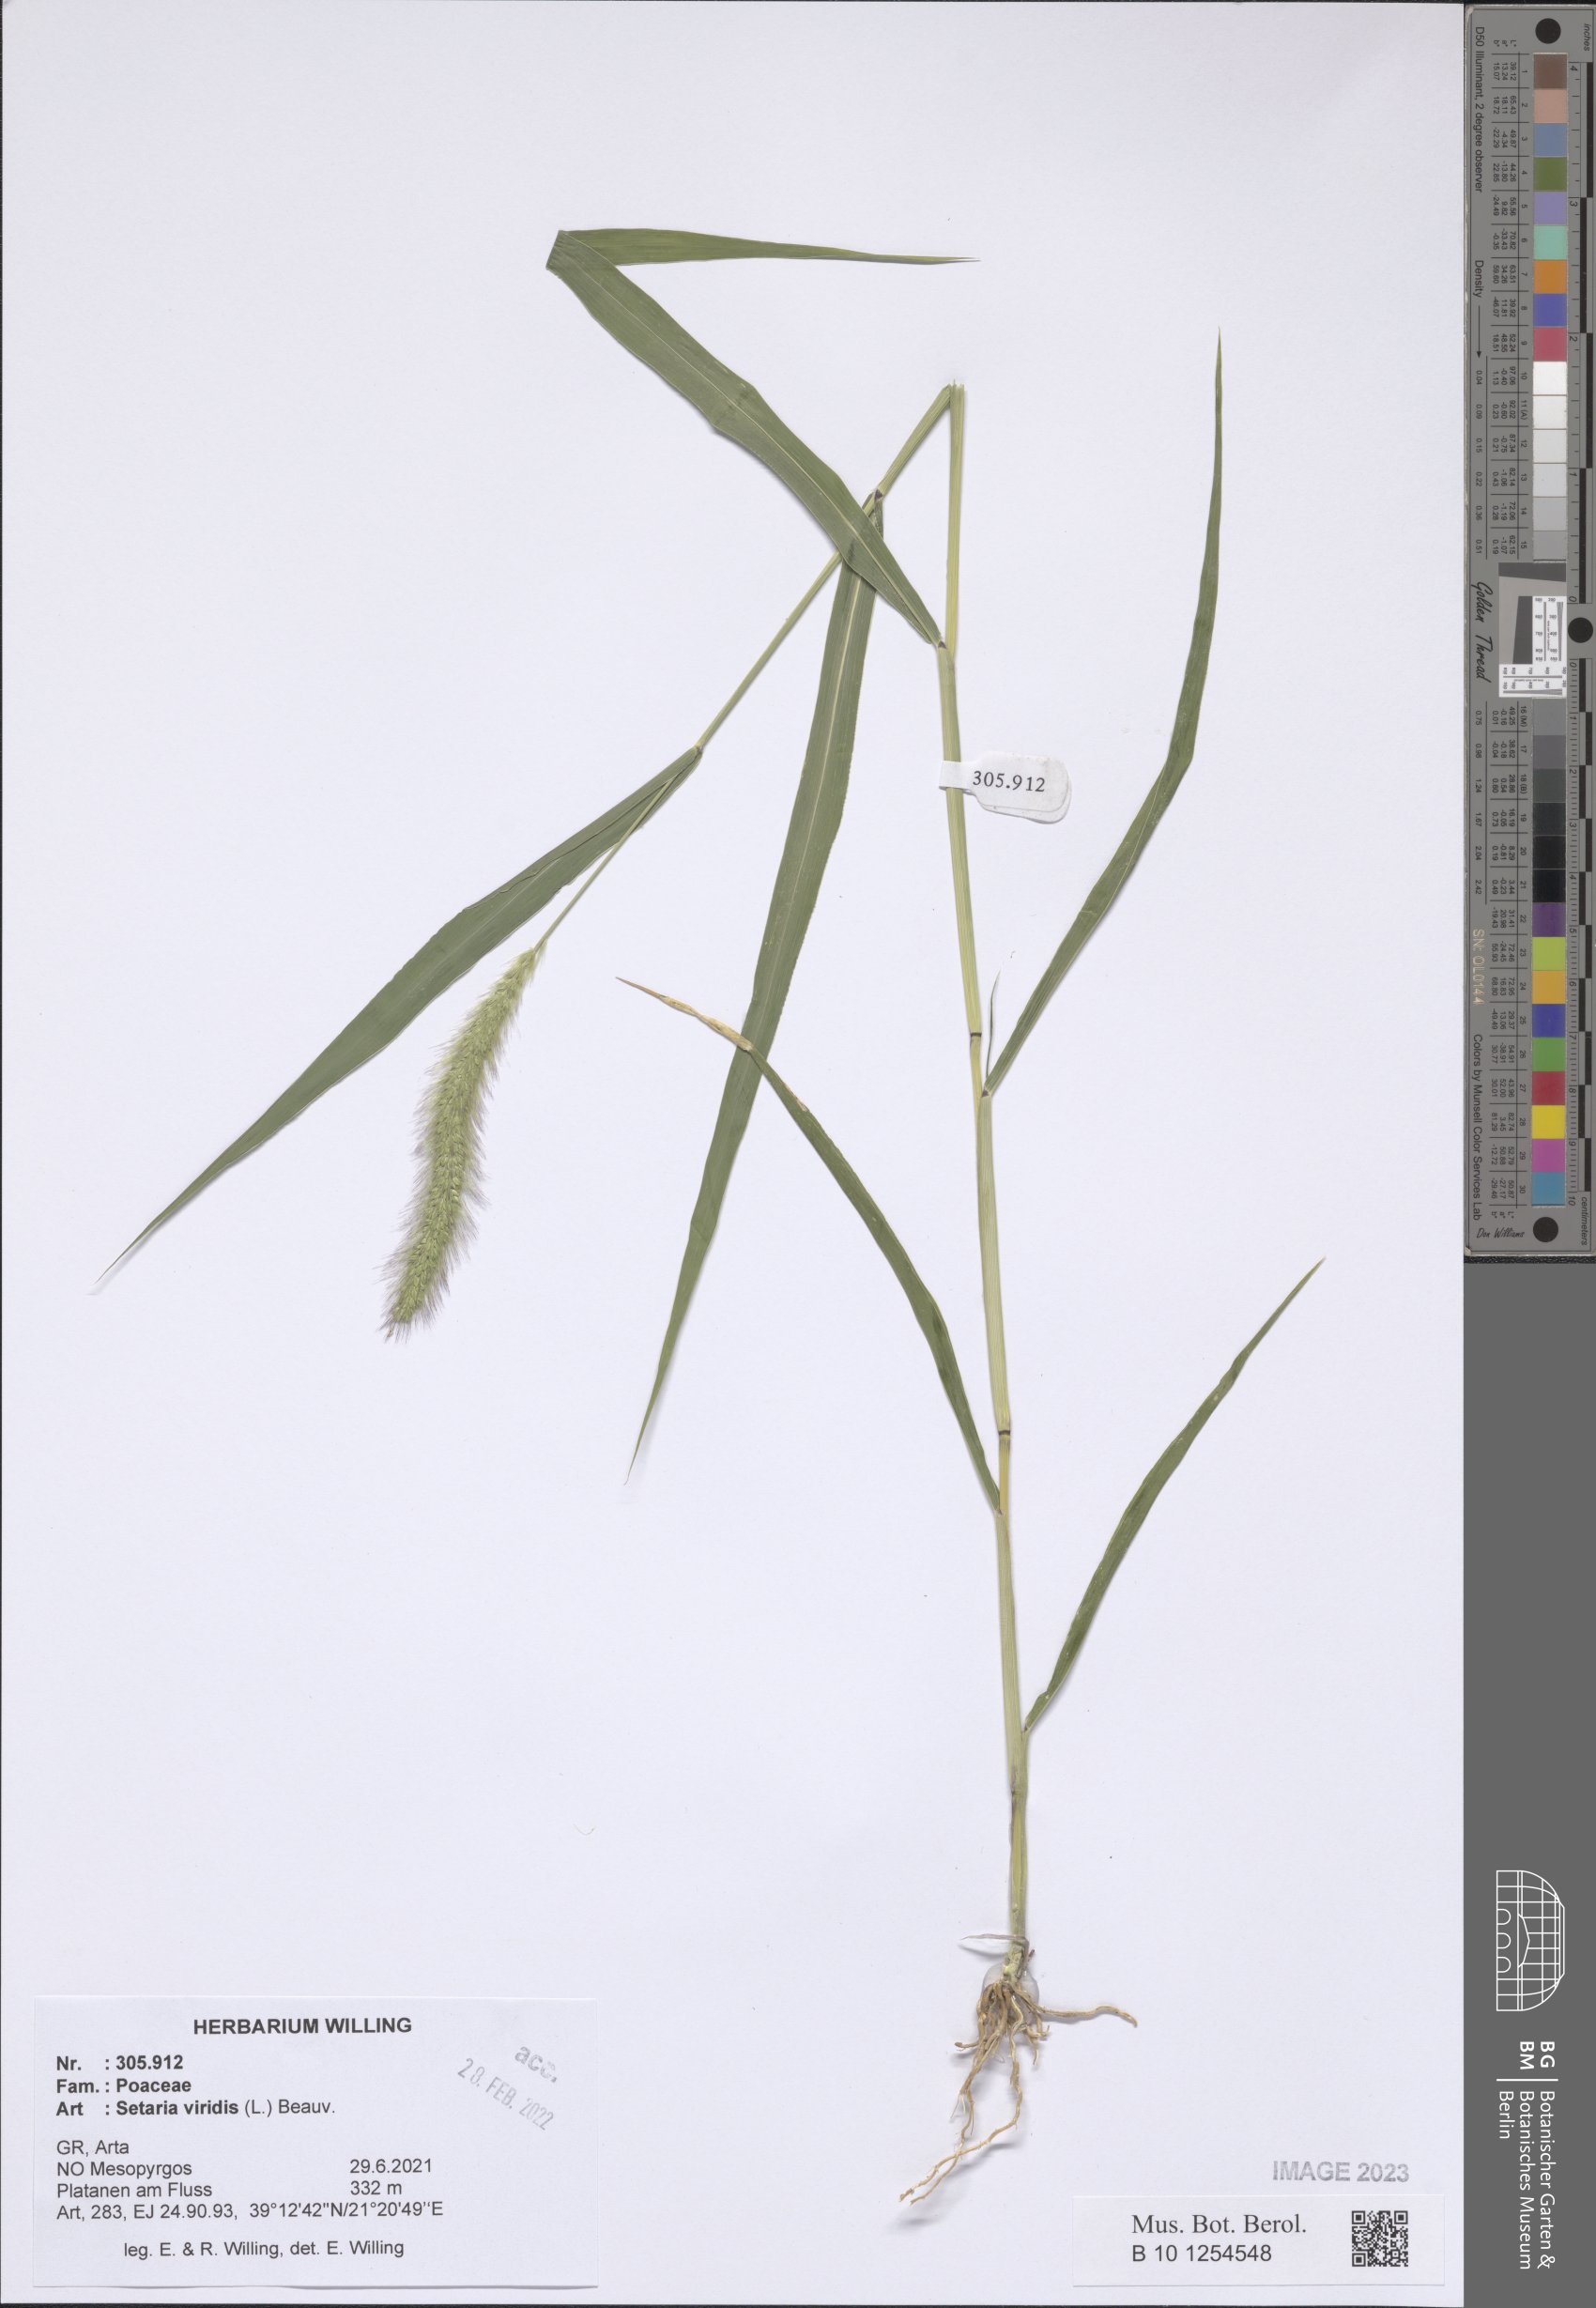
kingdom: Plantae
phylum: Tracheophyta
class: Liliopsida
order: Poales
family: Poaceae
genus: Setaria
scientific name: Setaria viridis
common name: Green bristlegrass
